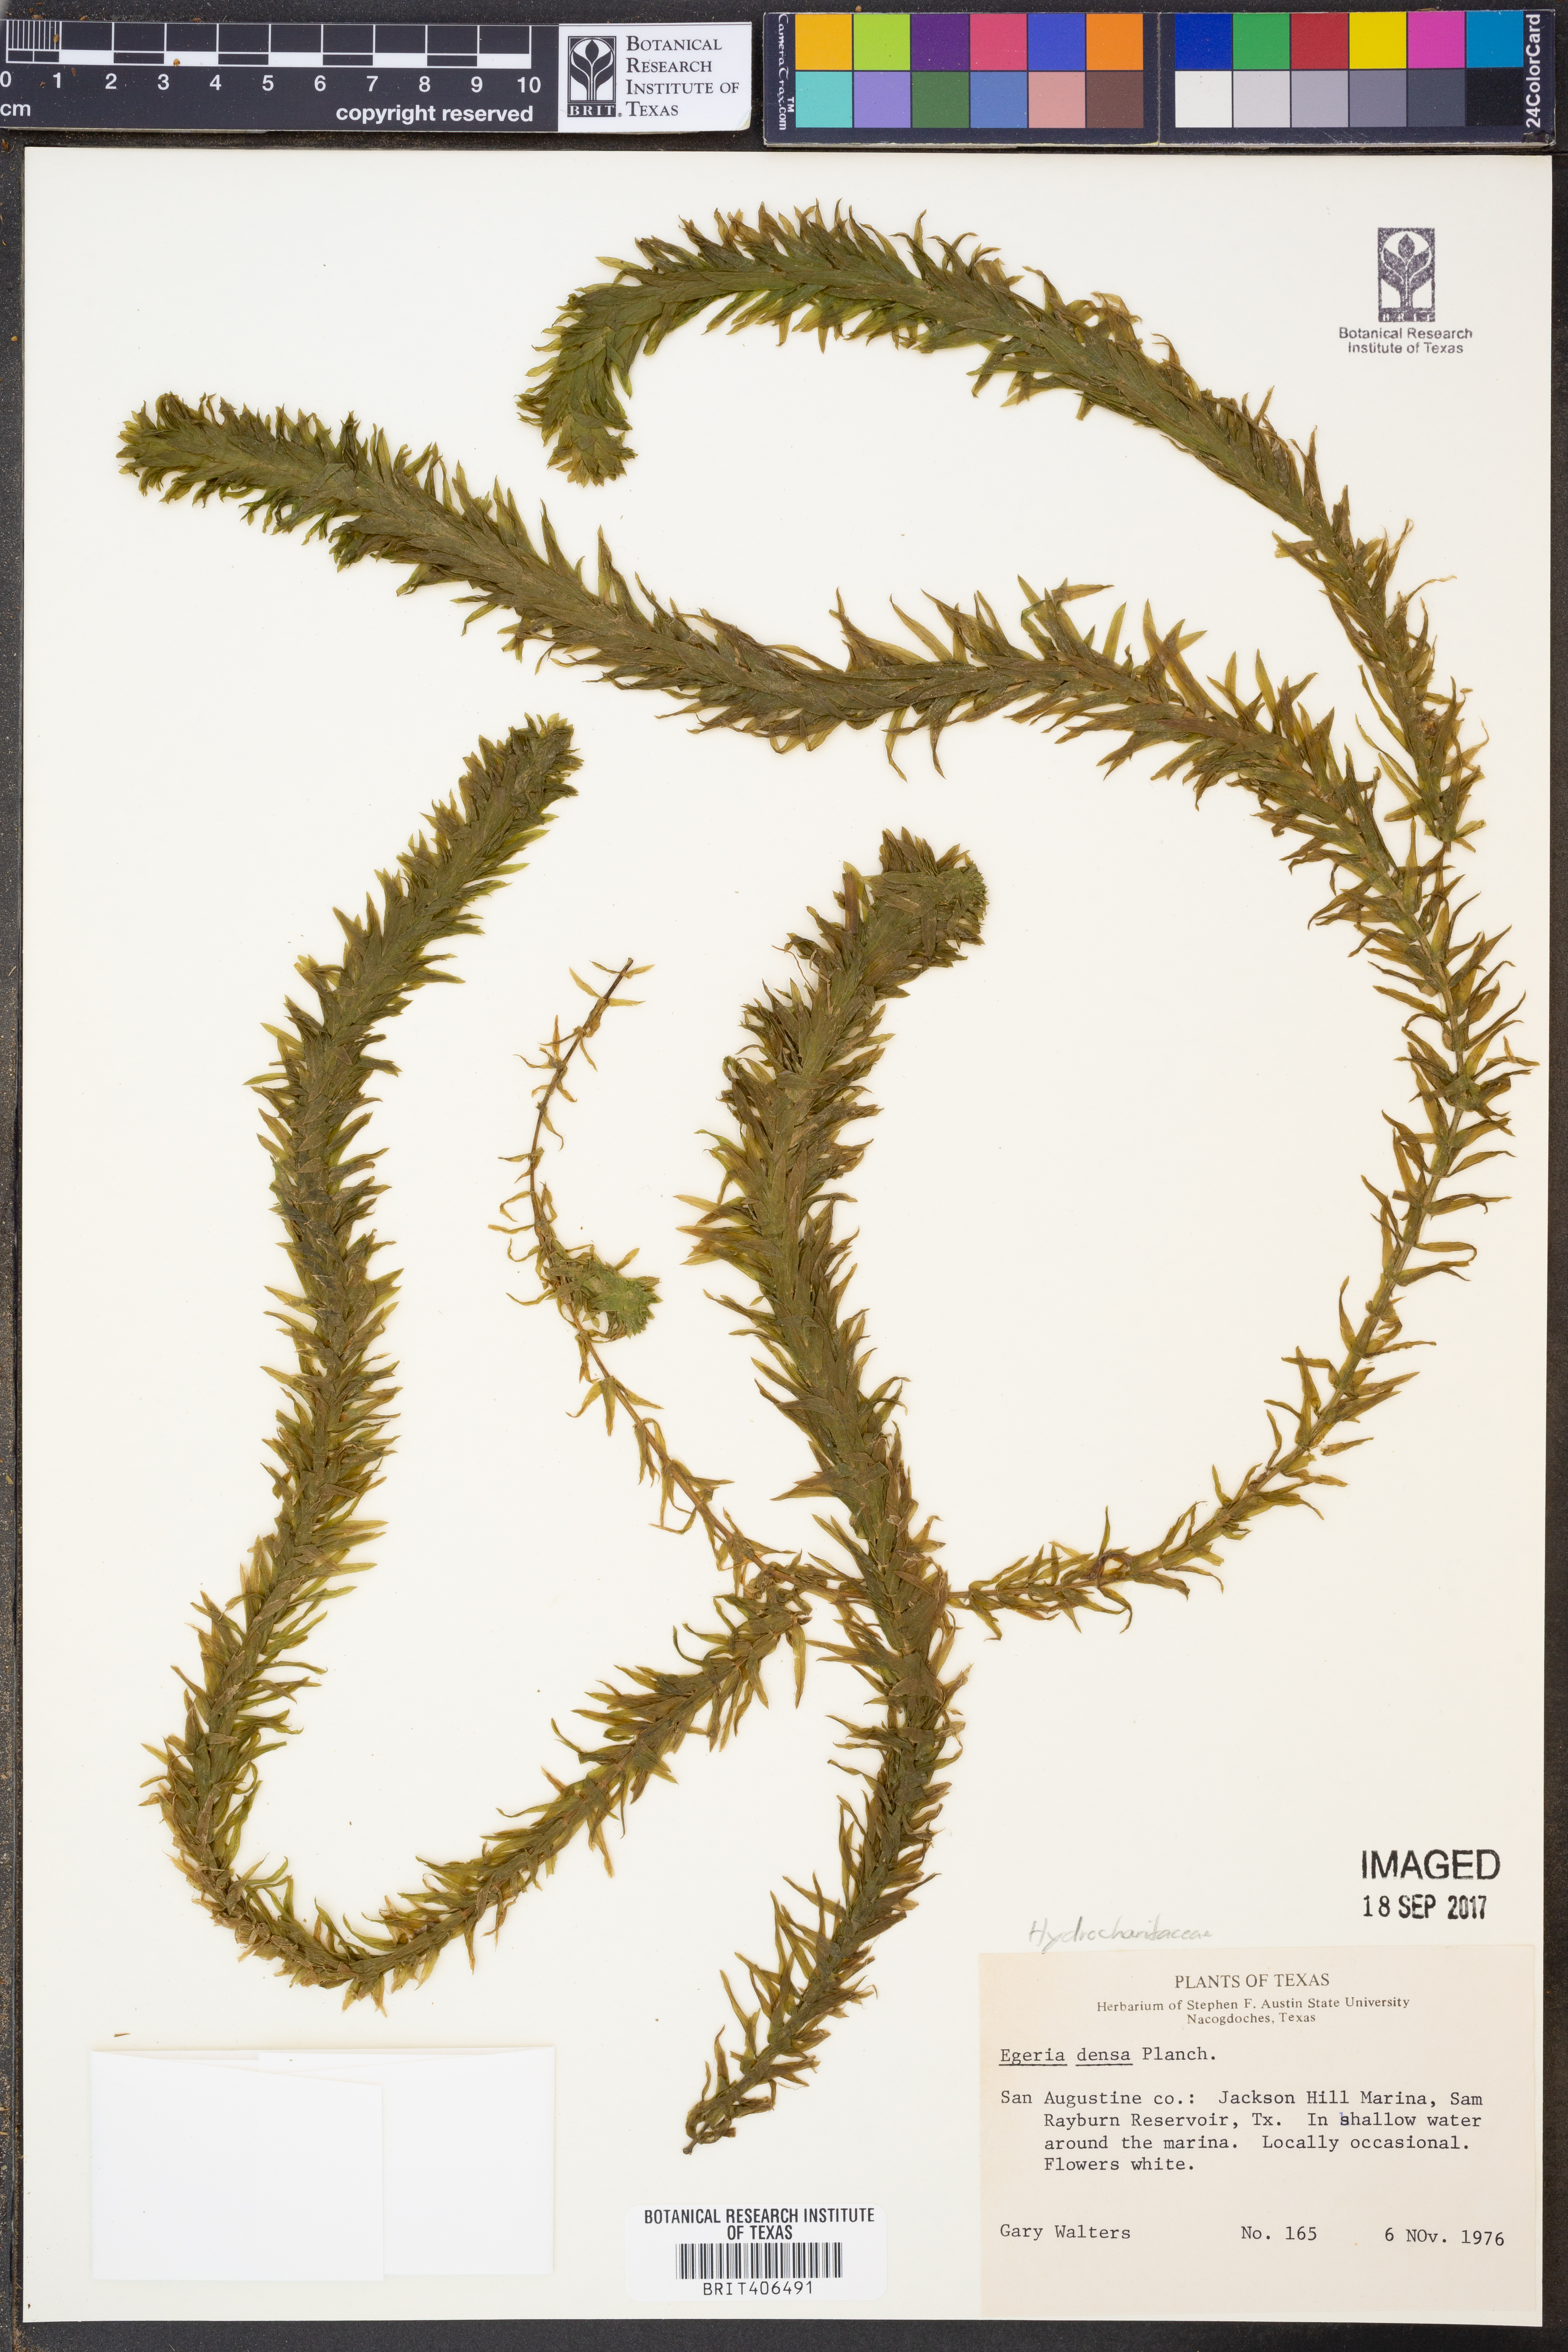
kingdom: Plantae
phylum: Tracheophyta
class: Liliopsida
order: Alismatales
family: Hydrocharitaceae
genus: Elodea
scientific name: Elodea densa
